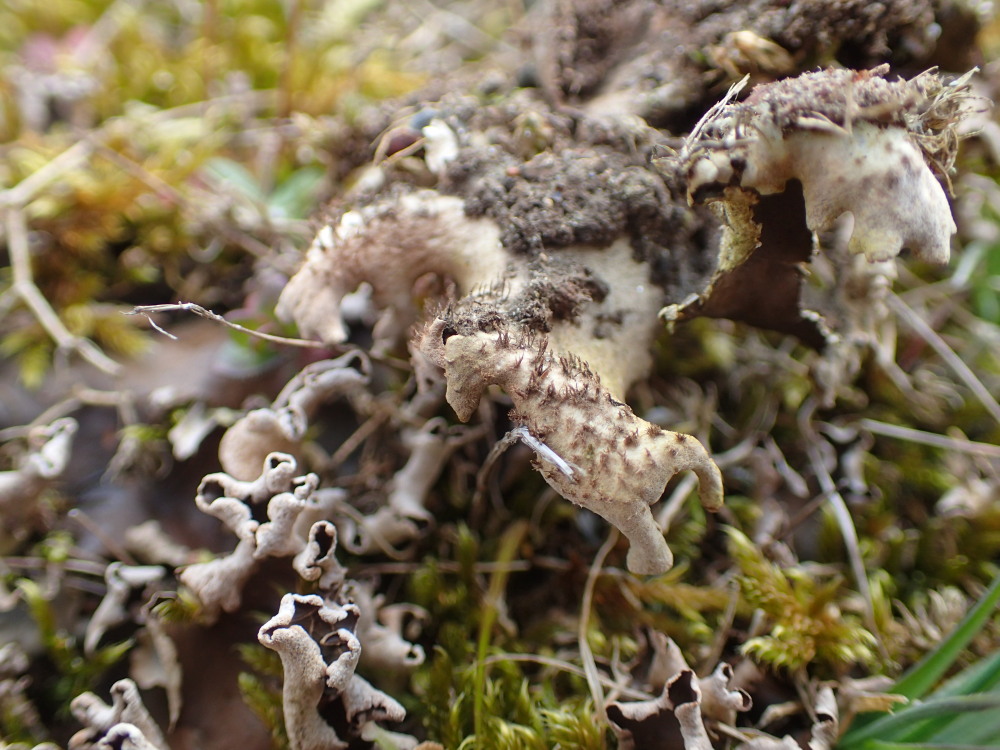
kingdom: Fungi
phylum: Ascomycota
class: Lecanoromycetes
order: Peltigerales
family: Peltigeraceae
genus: Peltigera
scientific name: Peltigera hymenina
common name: hinde-skjoldlav
